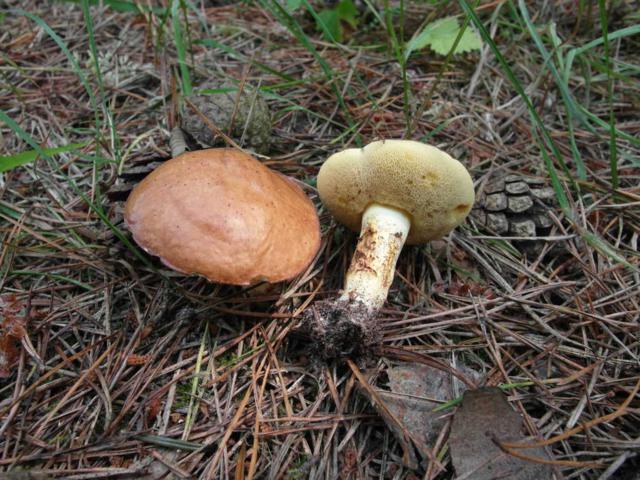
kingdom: Fungi
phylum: Basidiomycota
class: Agaricomycetes
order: Boletales
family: Suillaceae
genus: Suillus
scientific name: Suillus granulatus
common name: kornet slimrørhat
